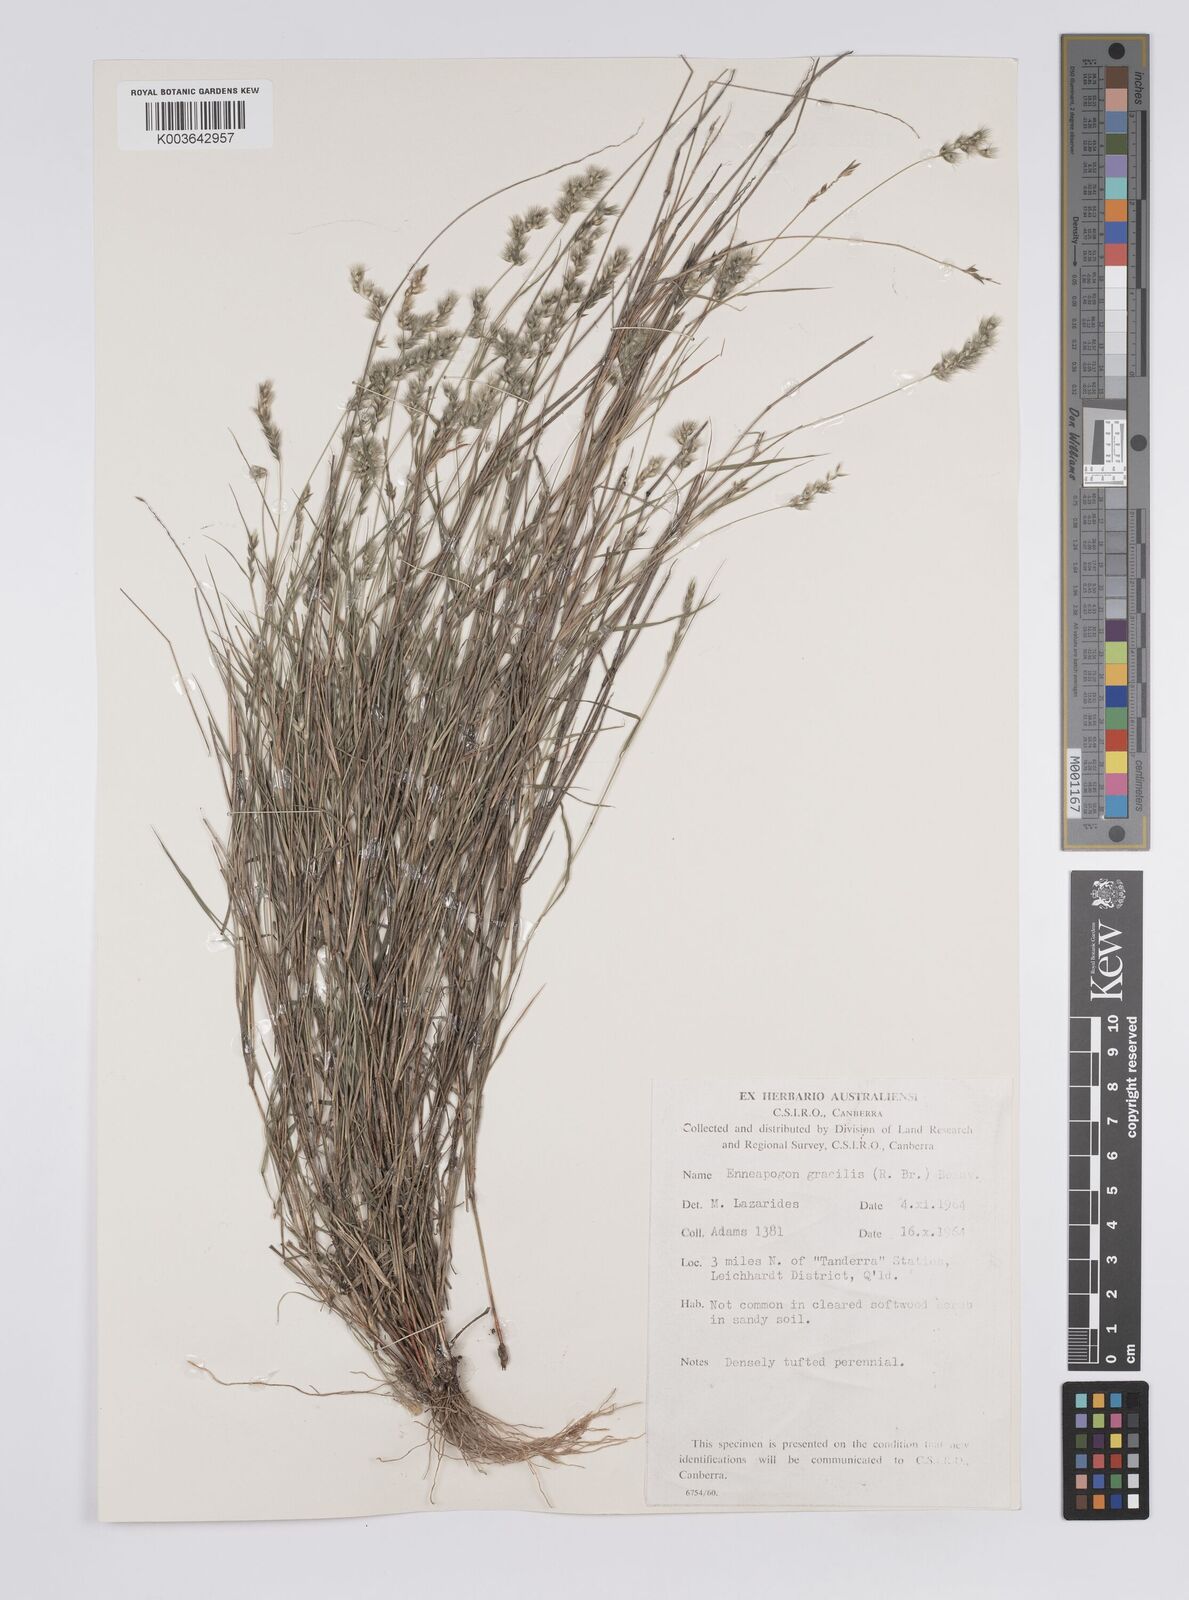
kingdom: Plantae
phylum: Tracheophyta
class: Liliopsida
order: Poales
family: Poaceae
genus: Enneapogon
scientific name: Enneapogon gracilis
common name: Slender bottle-washers
